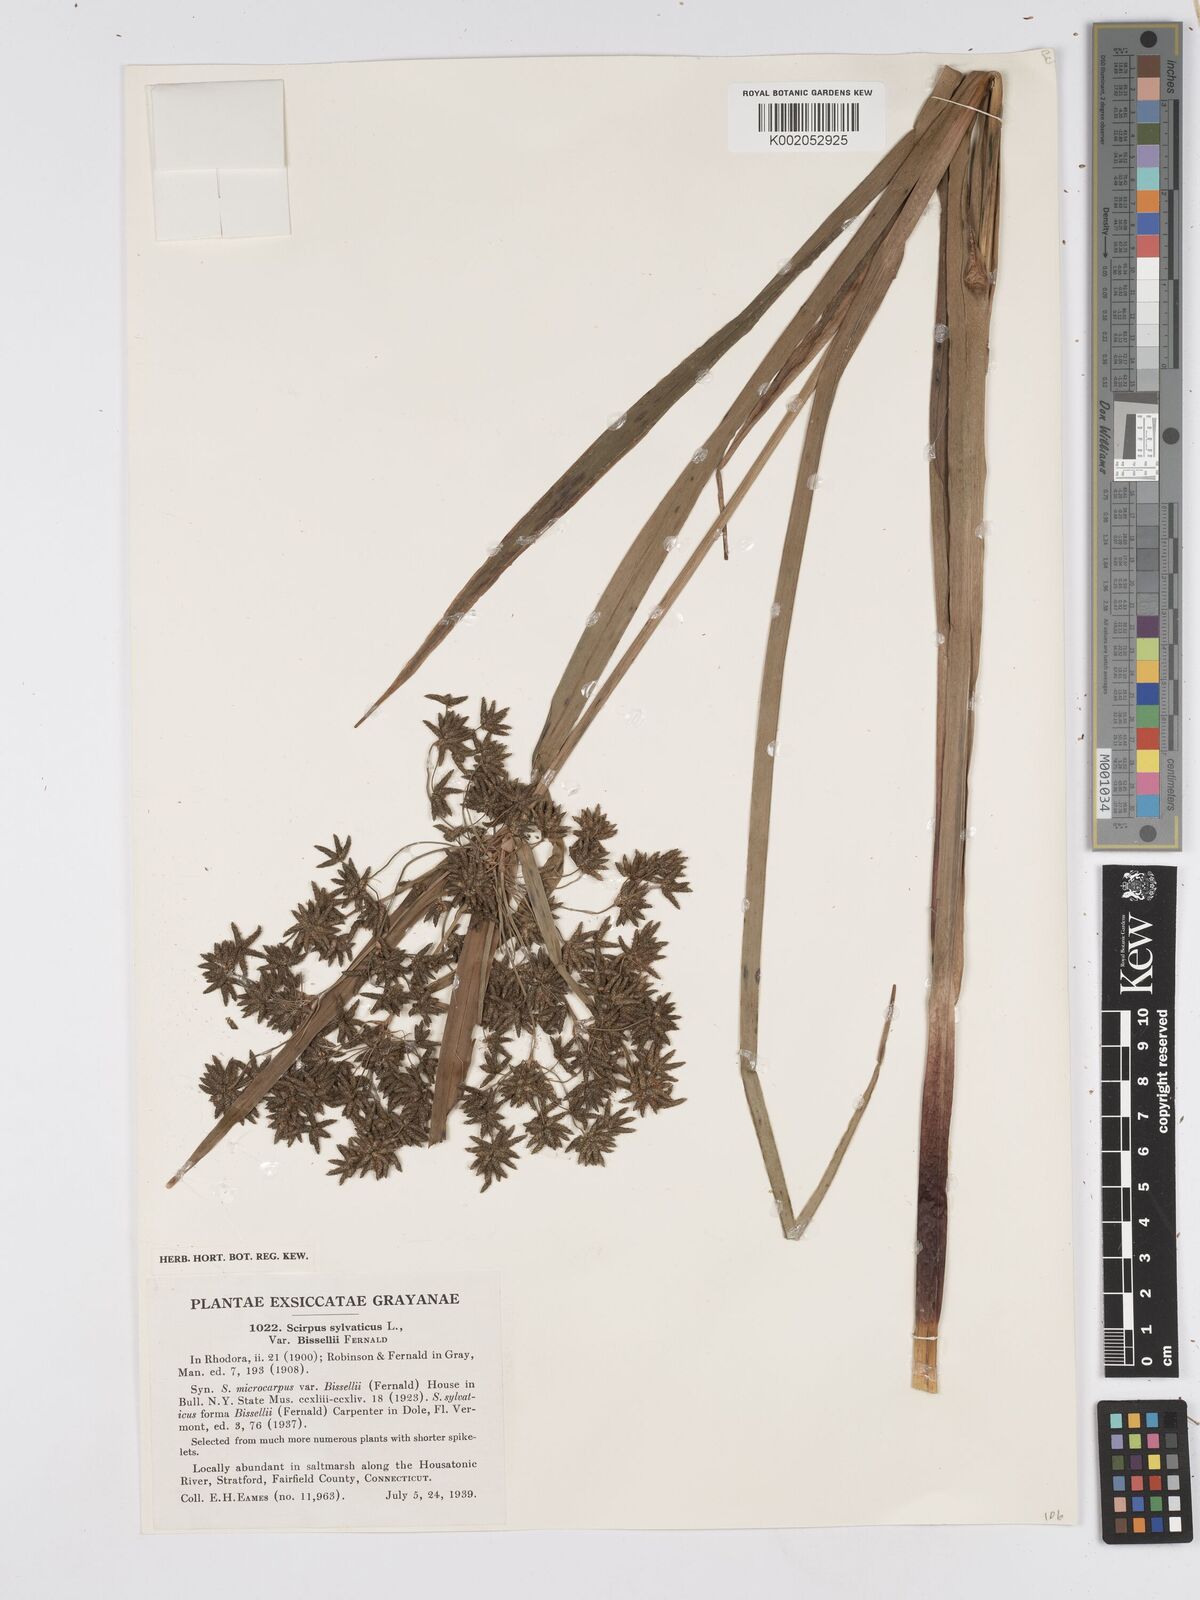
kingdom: Plantae
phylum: Tracheophyta
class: Liliopsida
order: Poales
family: Cyperaceae
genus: Scirpus
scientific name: Scirpus sylvaticus
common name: Wood club-rush
